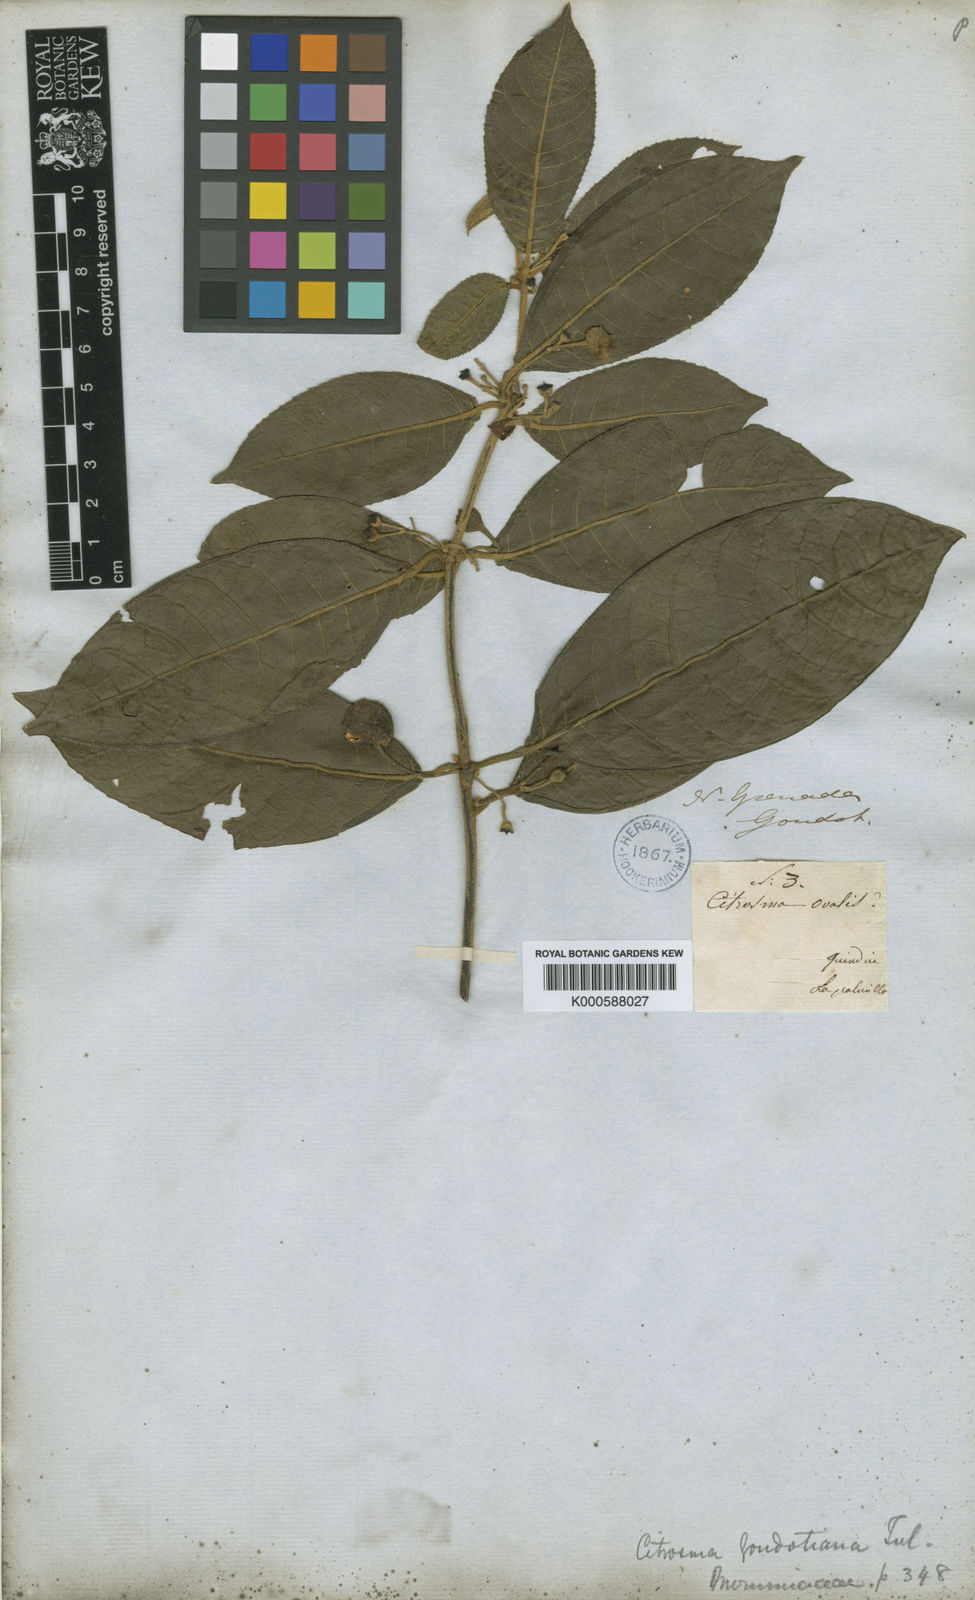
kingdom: Plantae
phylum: Tracheophyta
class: Magnoliopsida
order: Laurales
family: Siparunaceae
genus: Siparuna
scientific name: Siparuna lepidota
